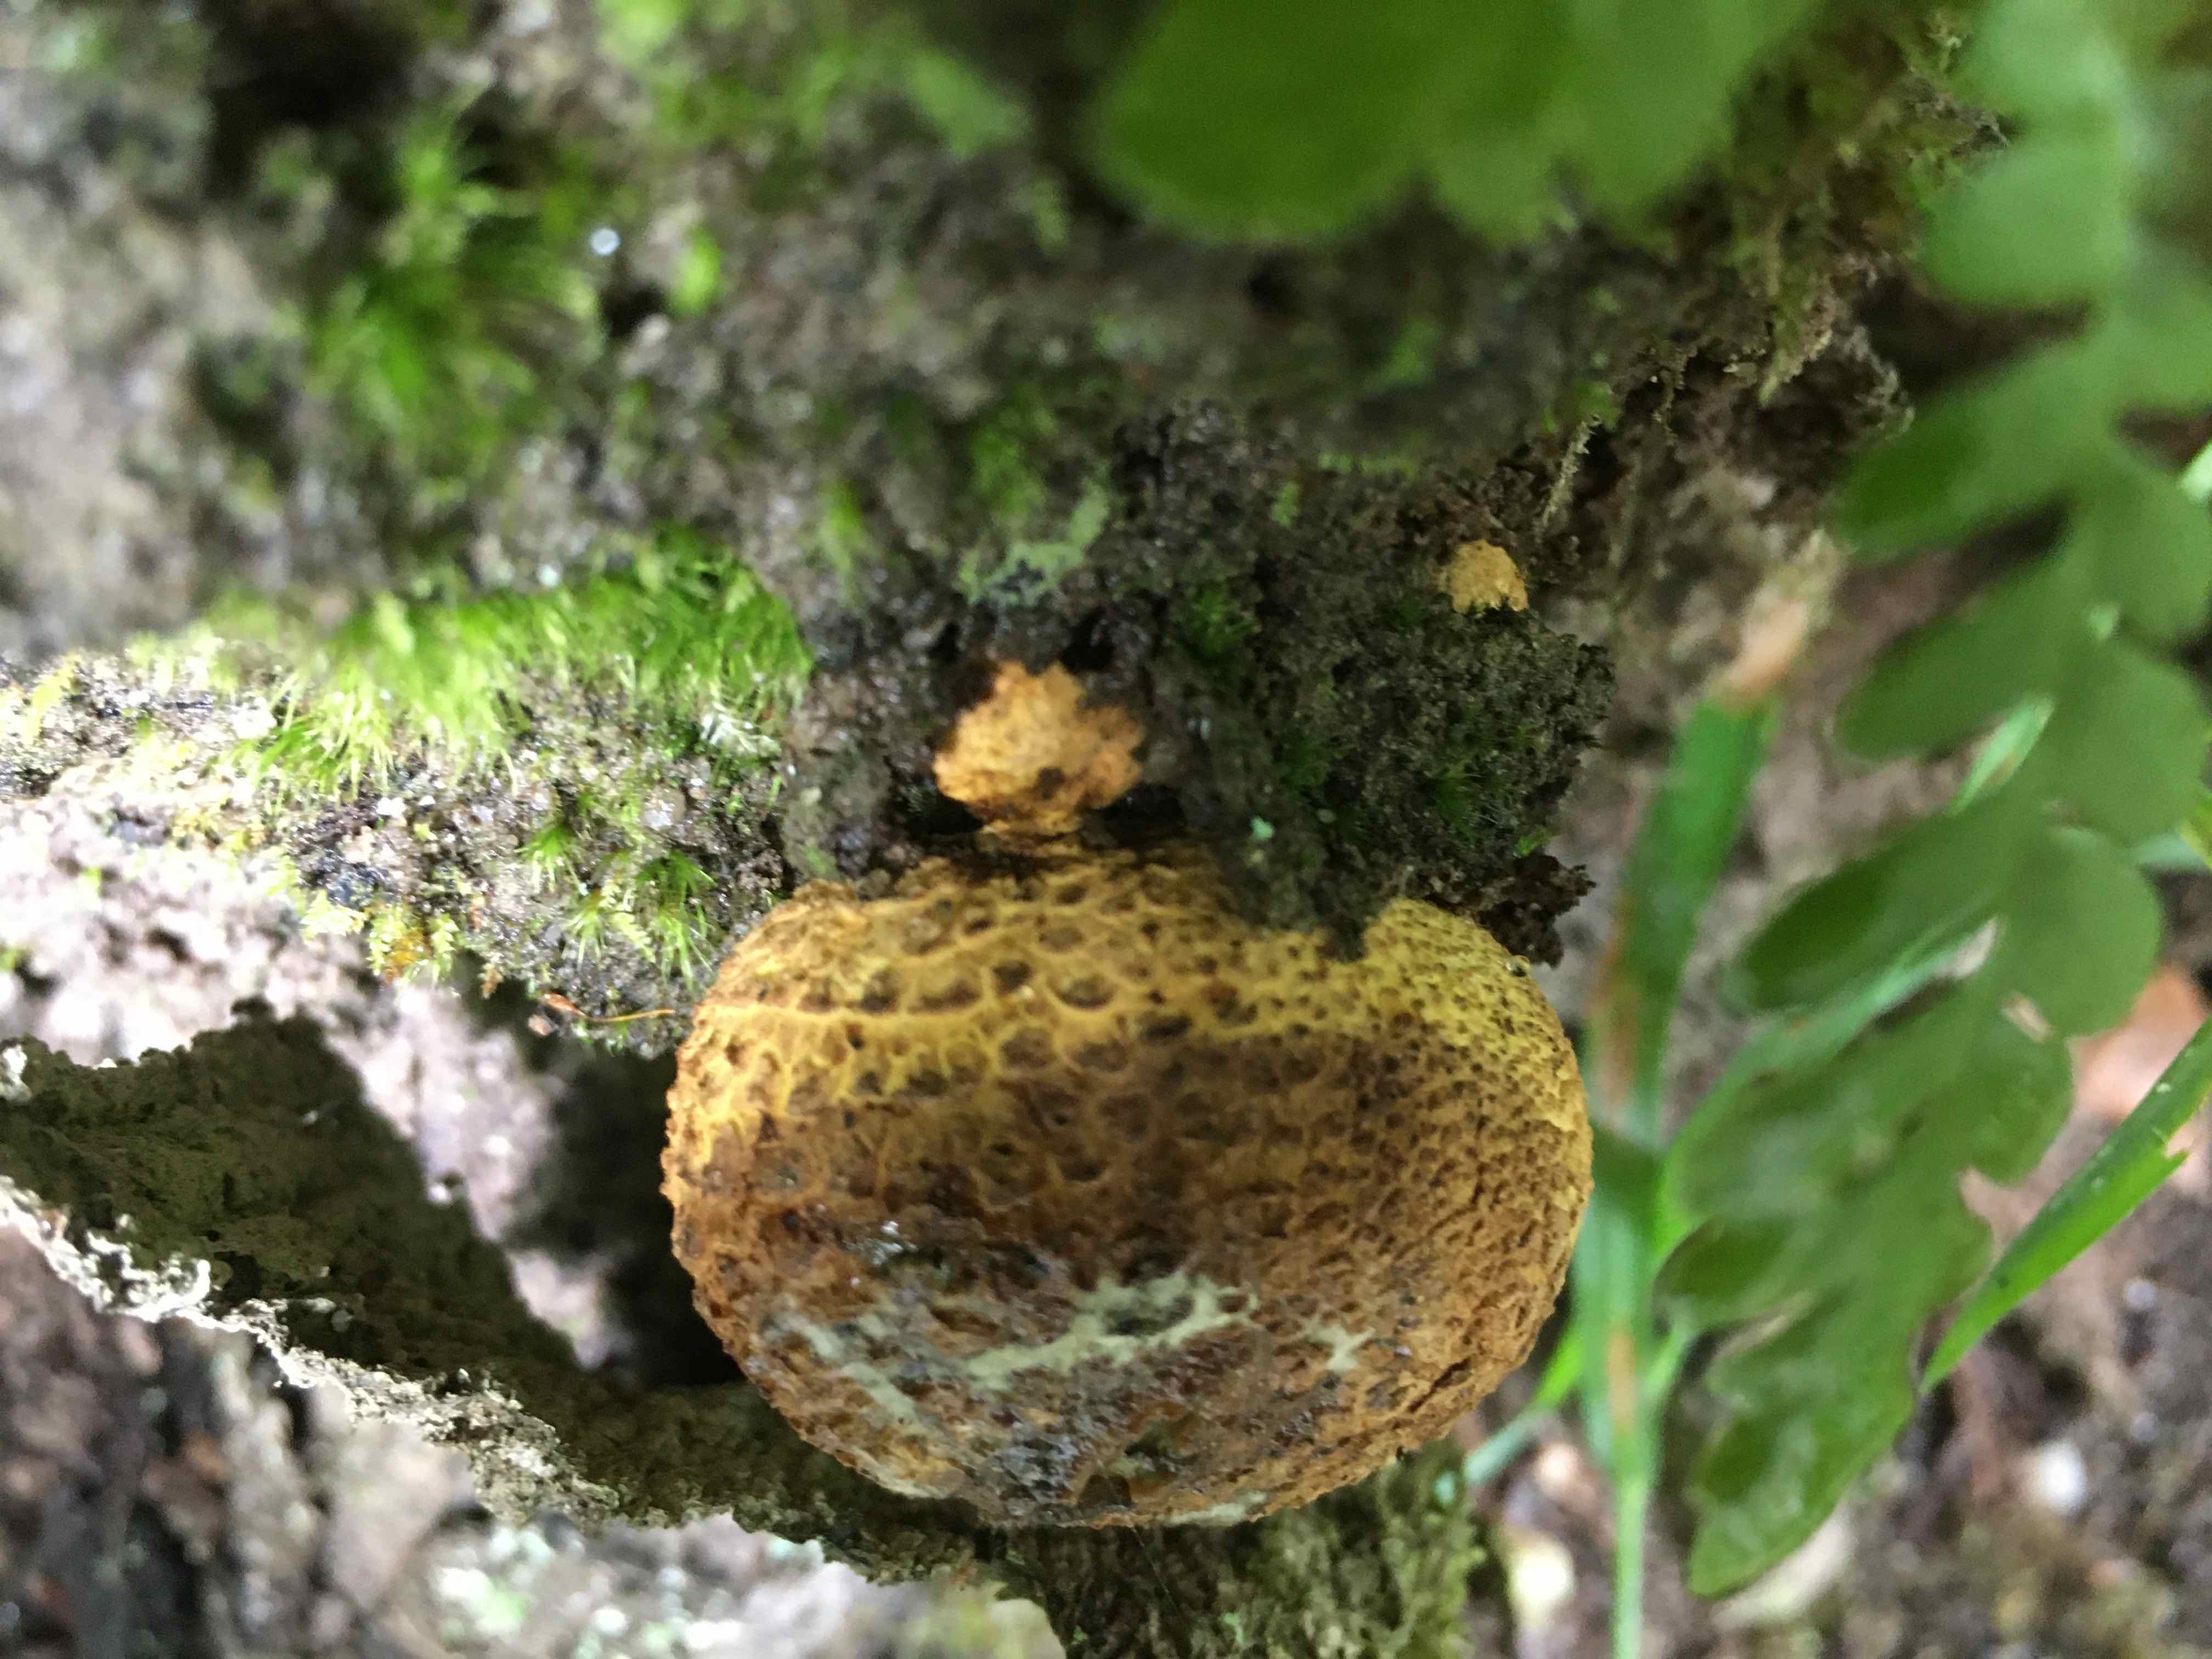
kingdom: Fungi
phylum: Basidiomycota
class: Agaricomycetes
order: Boletales
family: Sclerodermataceae
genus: Scleroderma
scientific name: Scleroderma citrinum
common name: almindelig bruskbold
